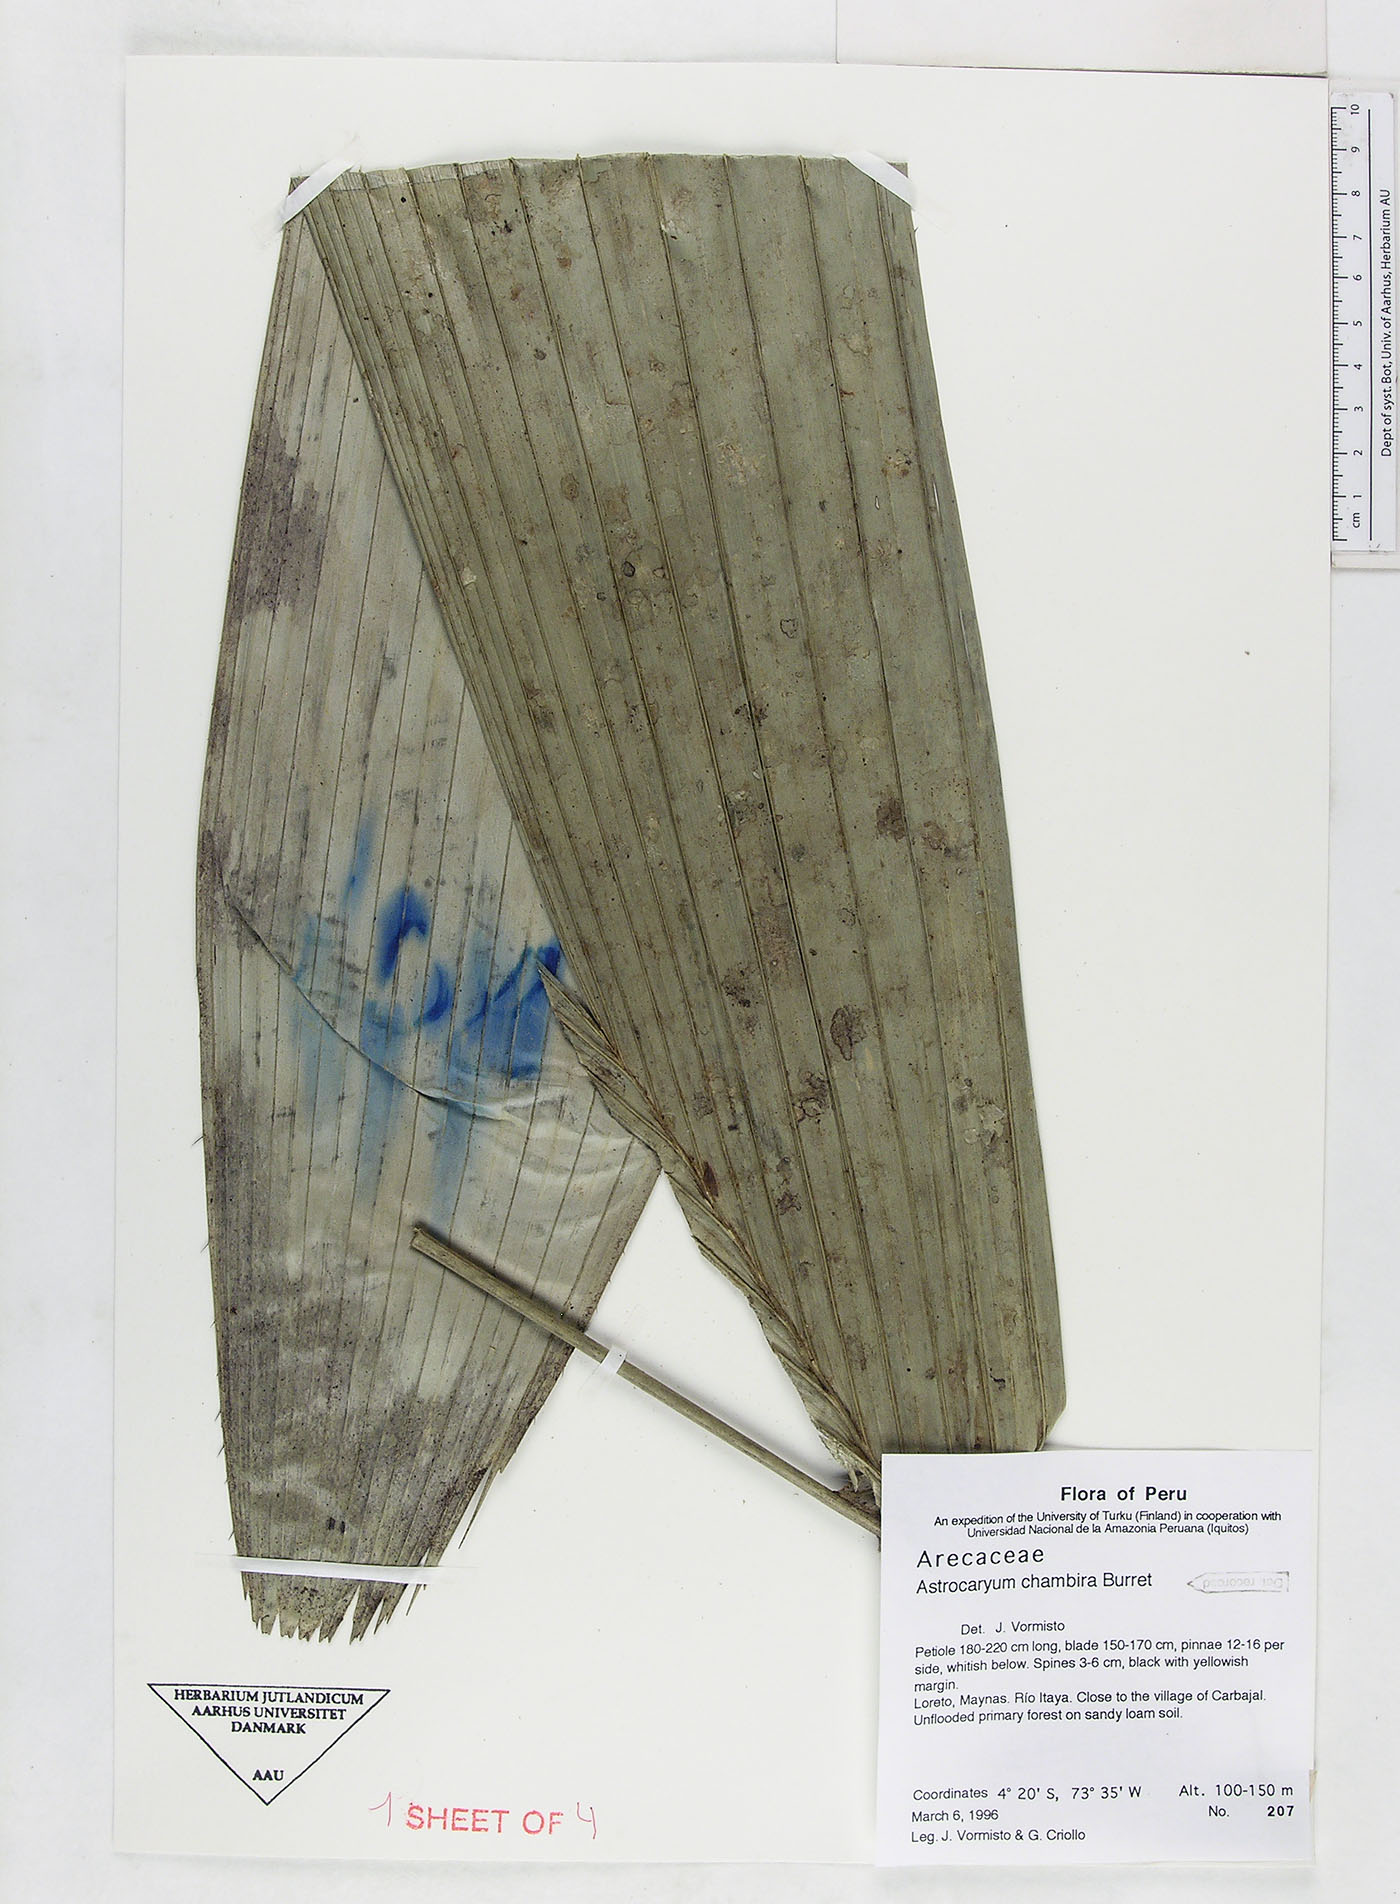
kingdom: Plantae
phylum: Tracheophyta
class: Liliopsida
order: Arecales
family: Arecaceae
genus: Astrocaryum
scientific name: Astrocaryum chambira
